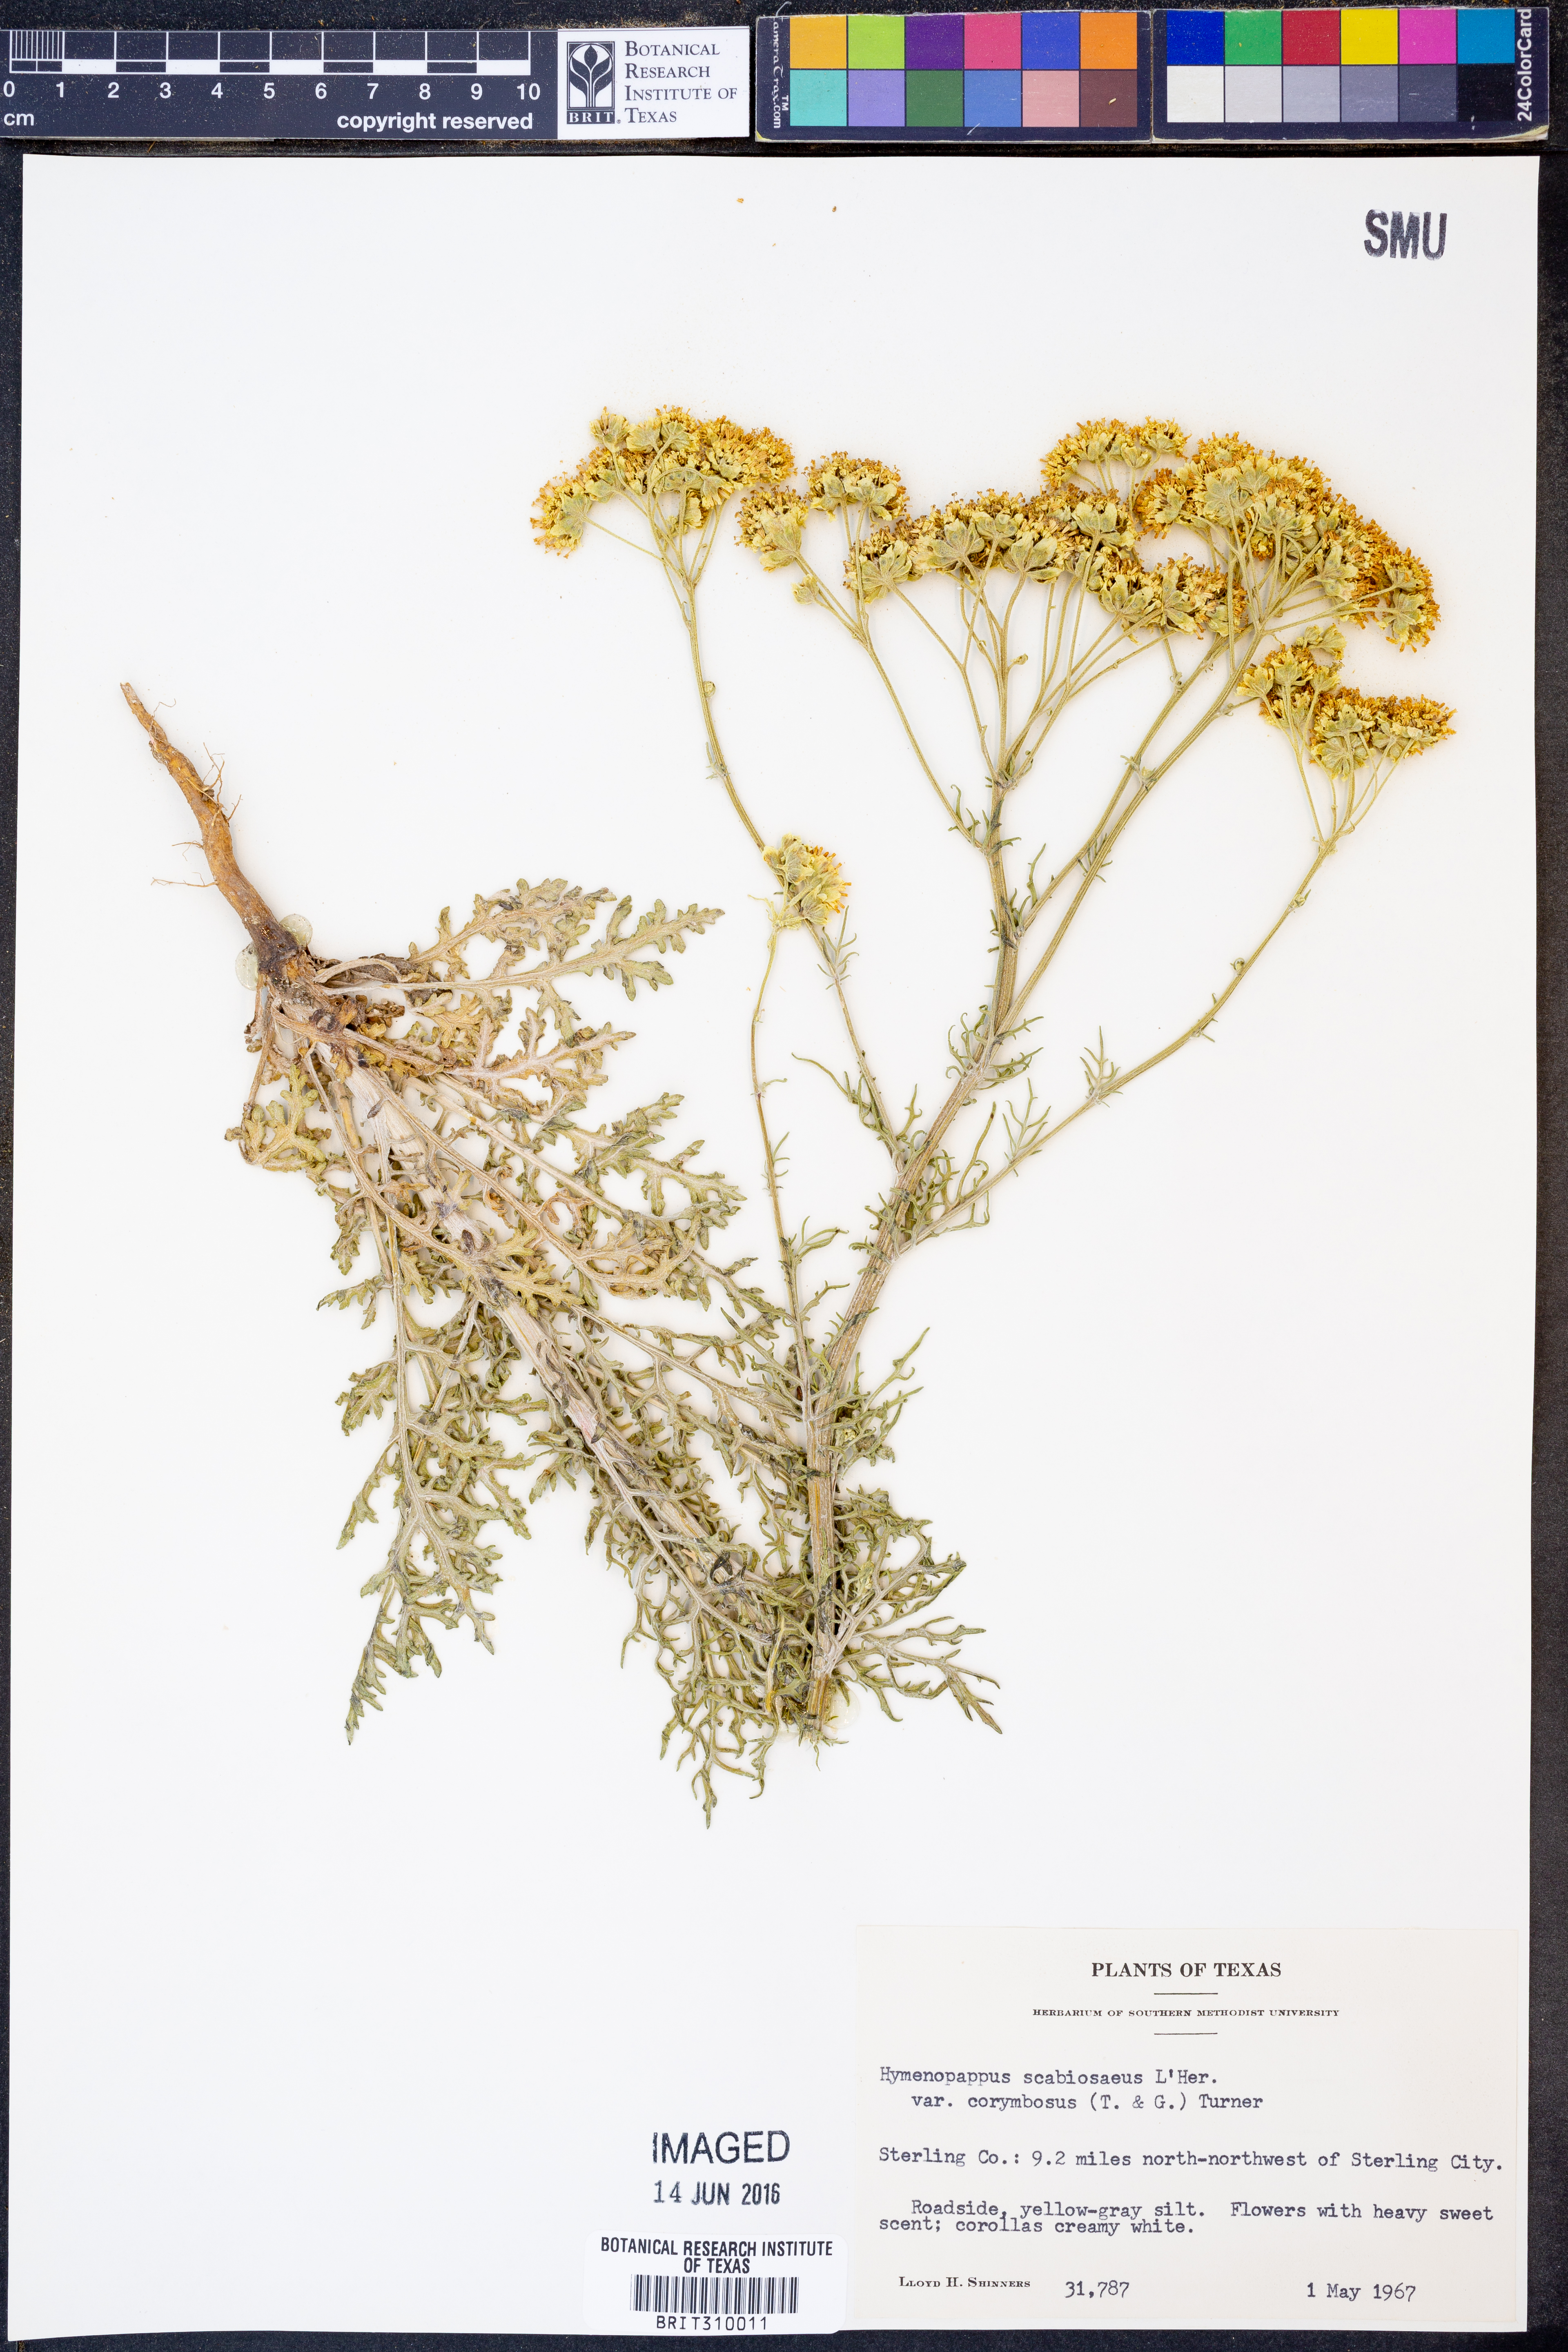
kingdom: Plantae
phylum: Tracheophyta
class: Magnoliopsida
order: Asterales
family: Asteraceae
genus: Hymenopappus
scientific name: Hymenopappus scabiosaeus
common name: Carolina woollywhite
